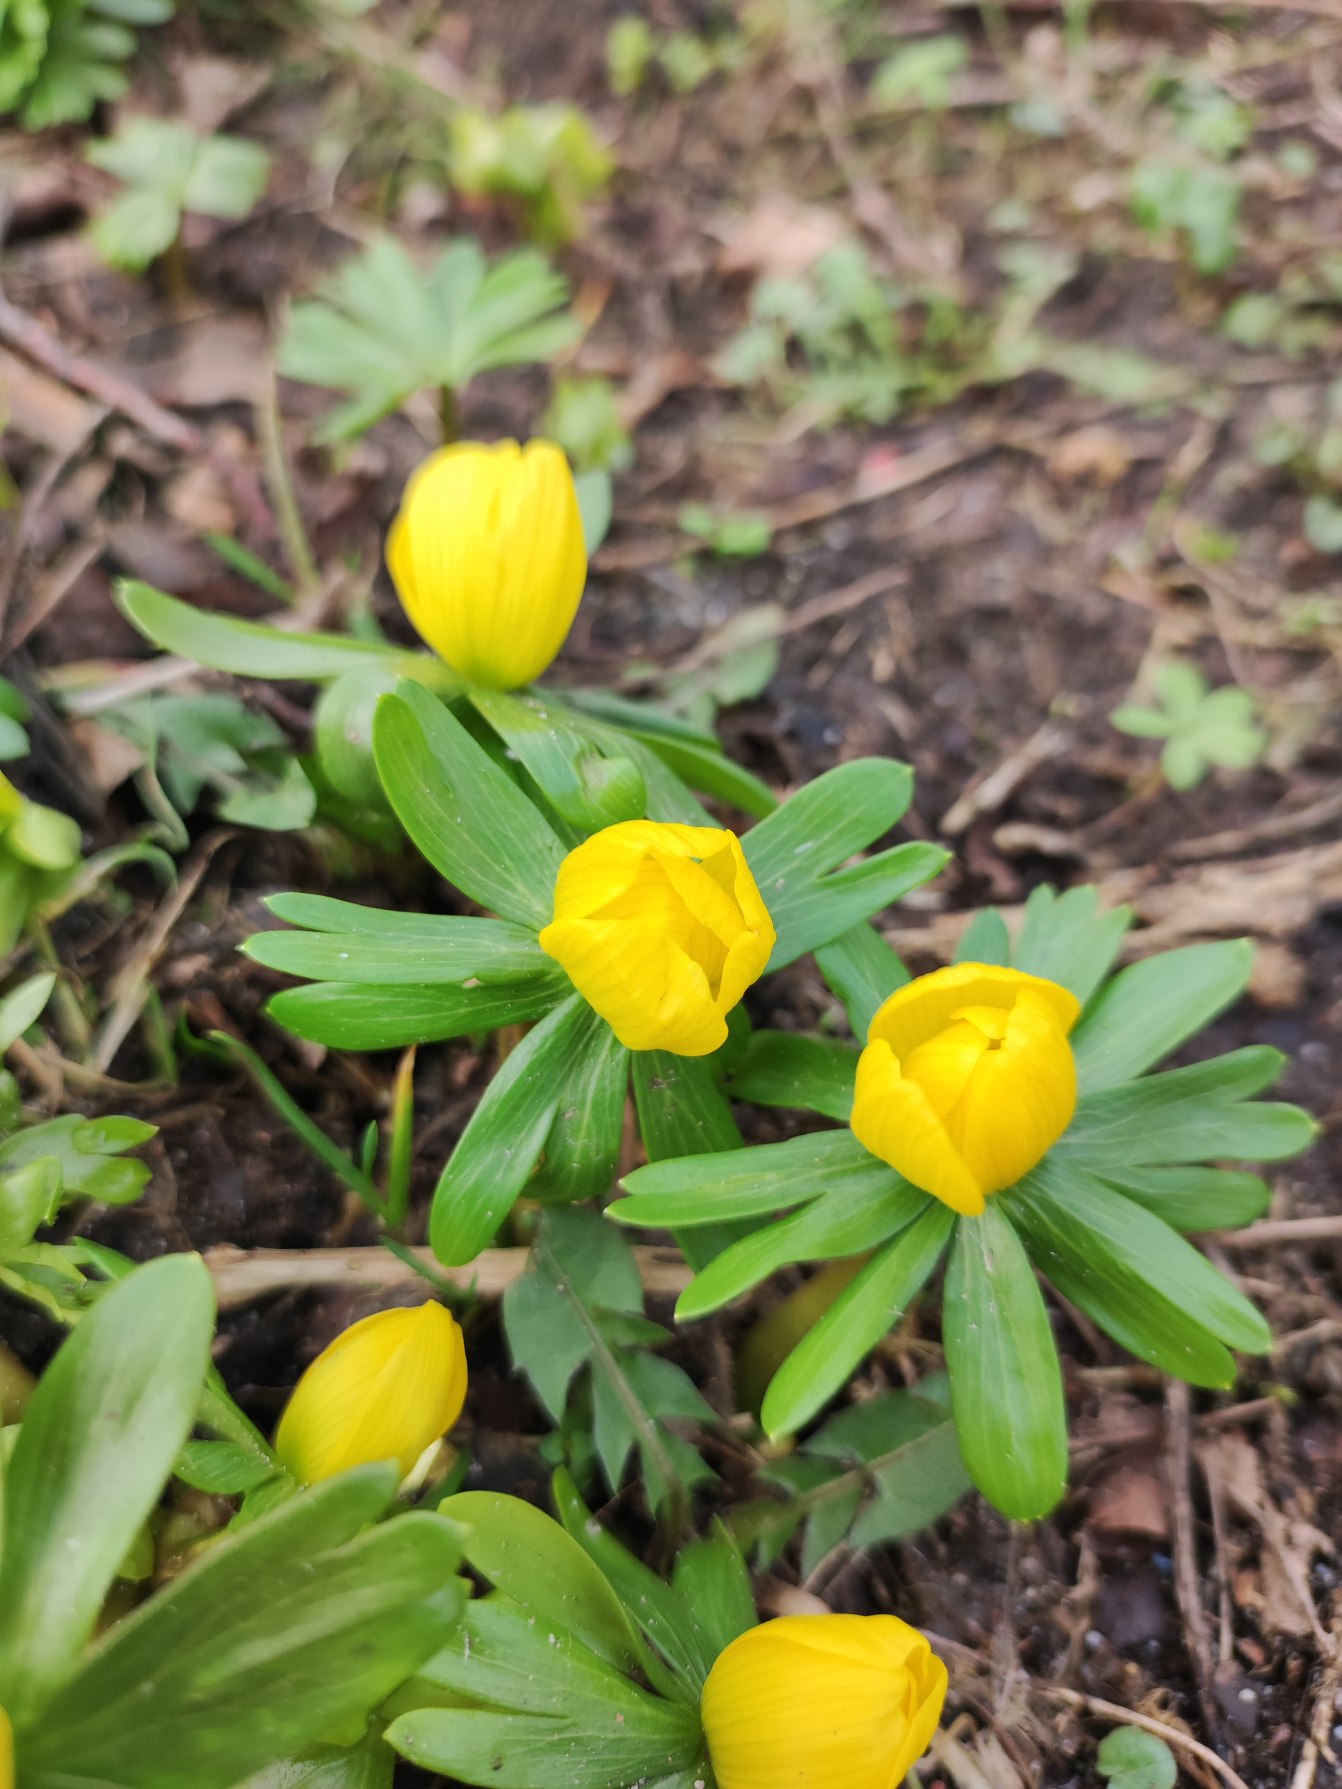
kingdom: Plantae
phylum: Tracheophyta
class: Magnoliopsida
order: Ranunculales
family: Ranunculaceae
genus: Eranthis
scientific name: Eranthis hyemalis
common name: Erantis
